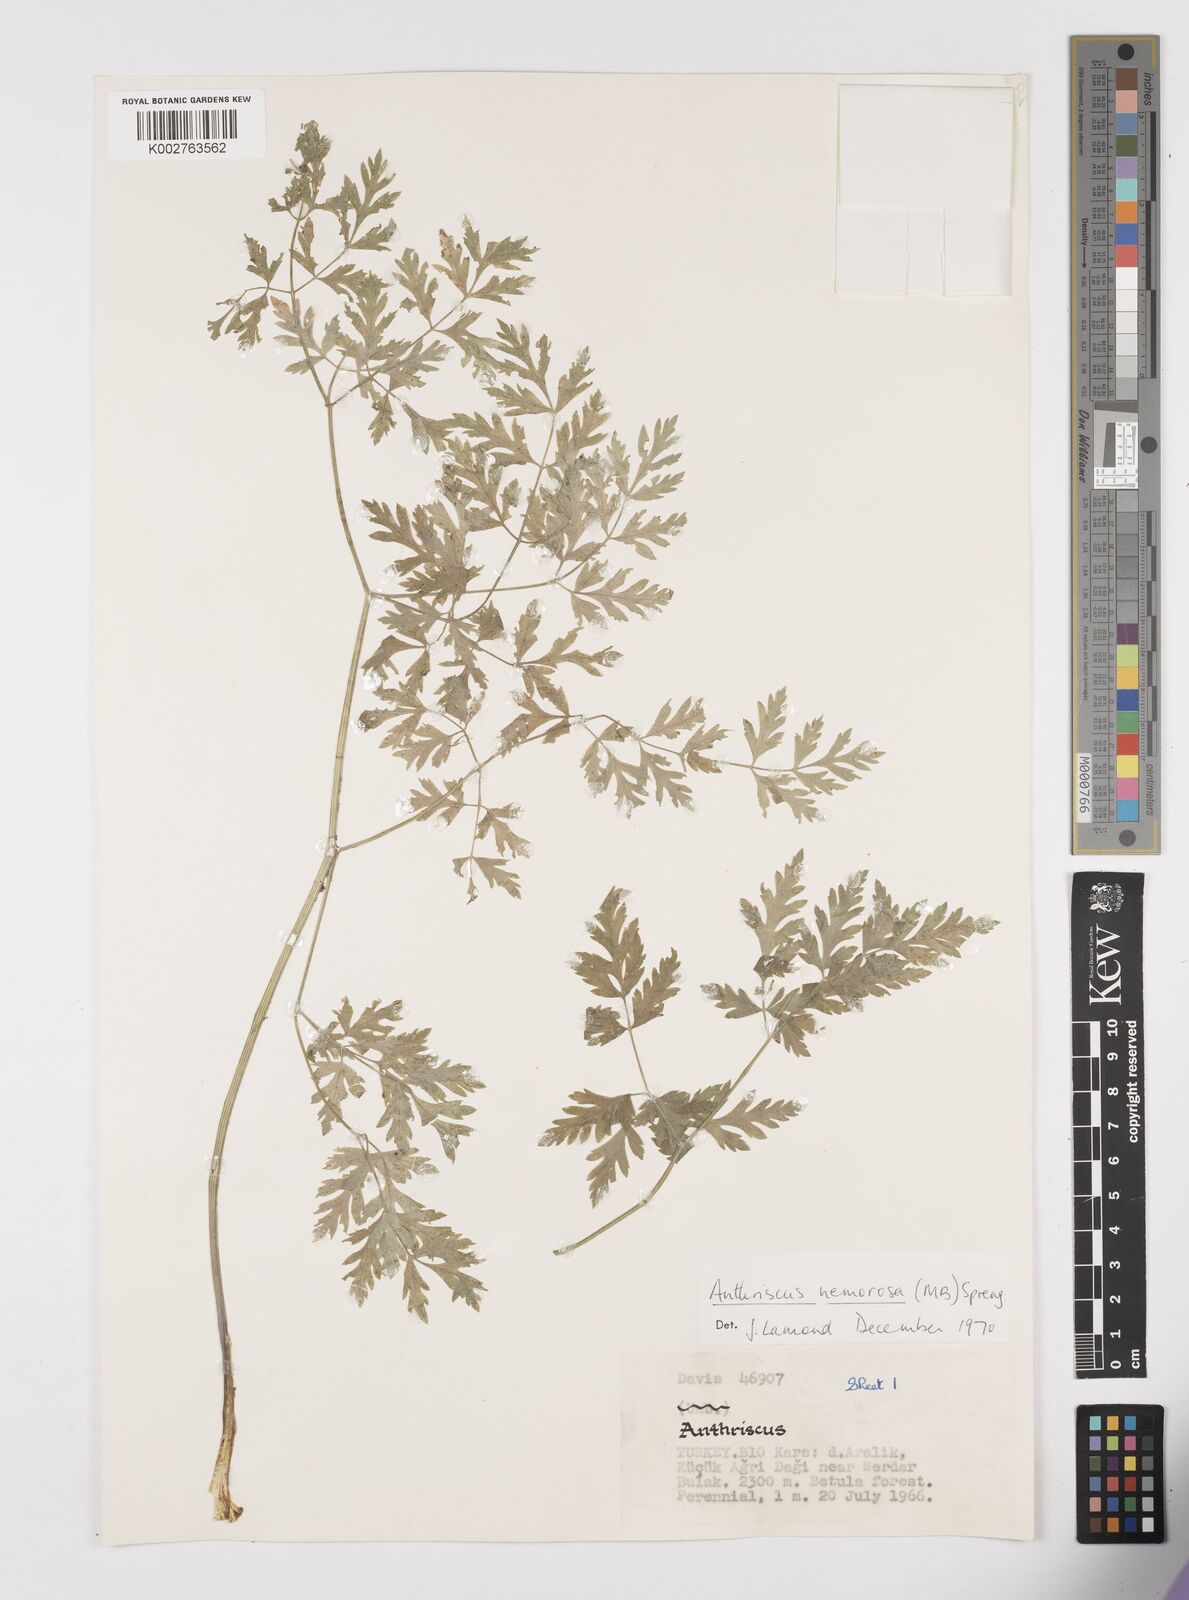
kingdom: Plantae
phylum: Tracheophyta
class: Magnoliopsida
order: Apiales
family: Apiaceae
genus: Anthriscus
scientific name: Anthriscus sylvestris
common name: Cow parsley
